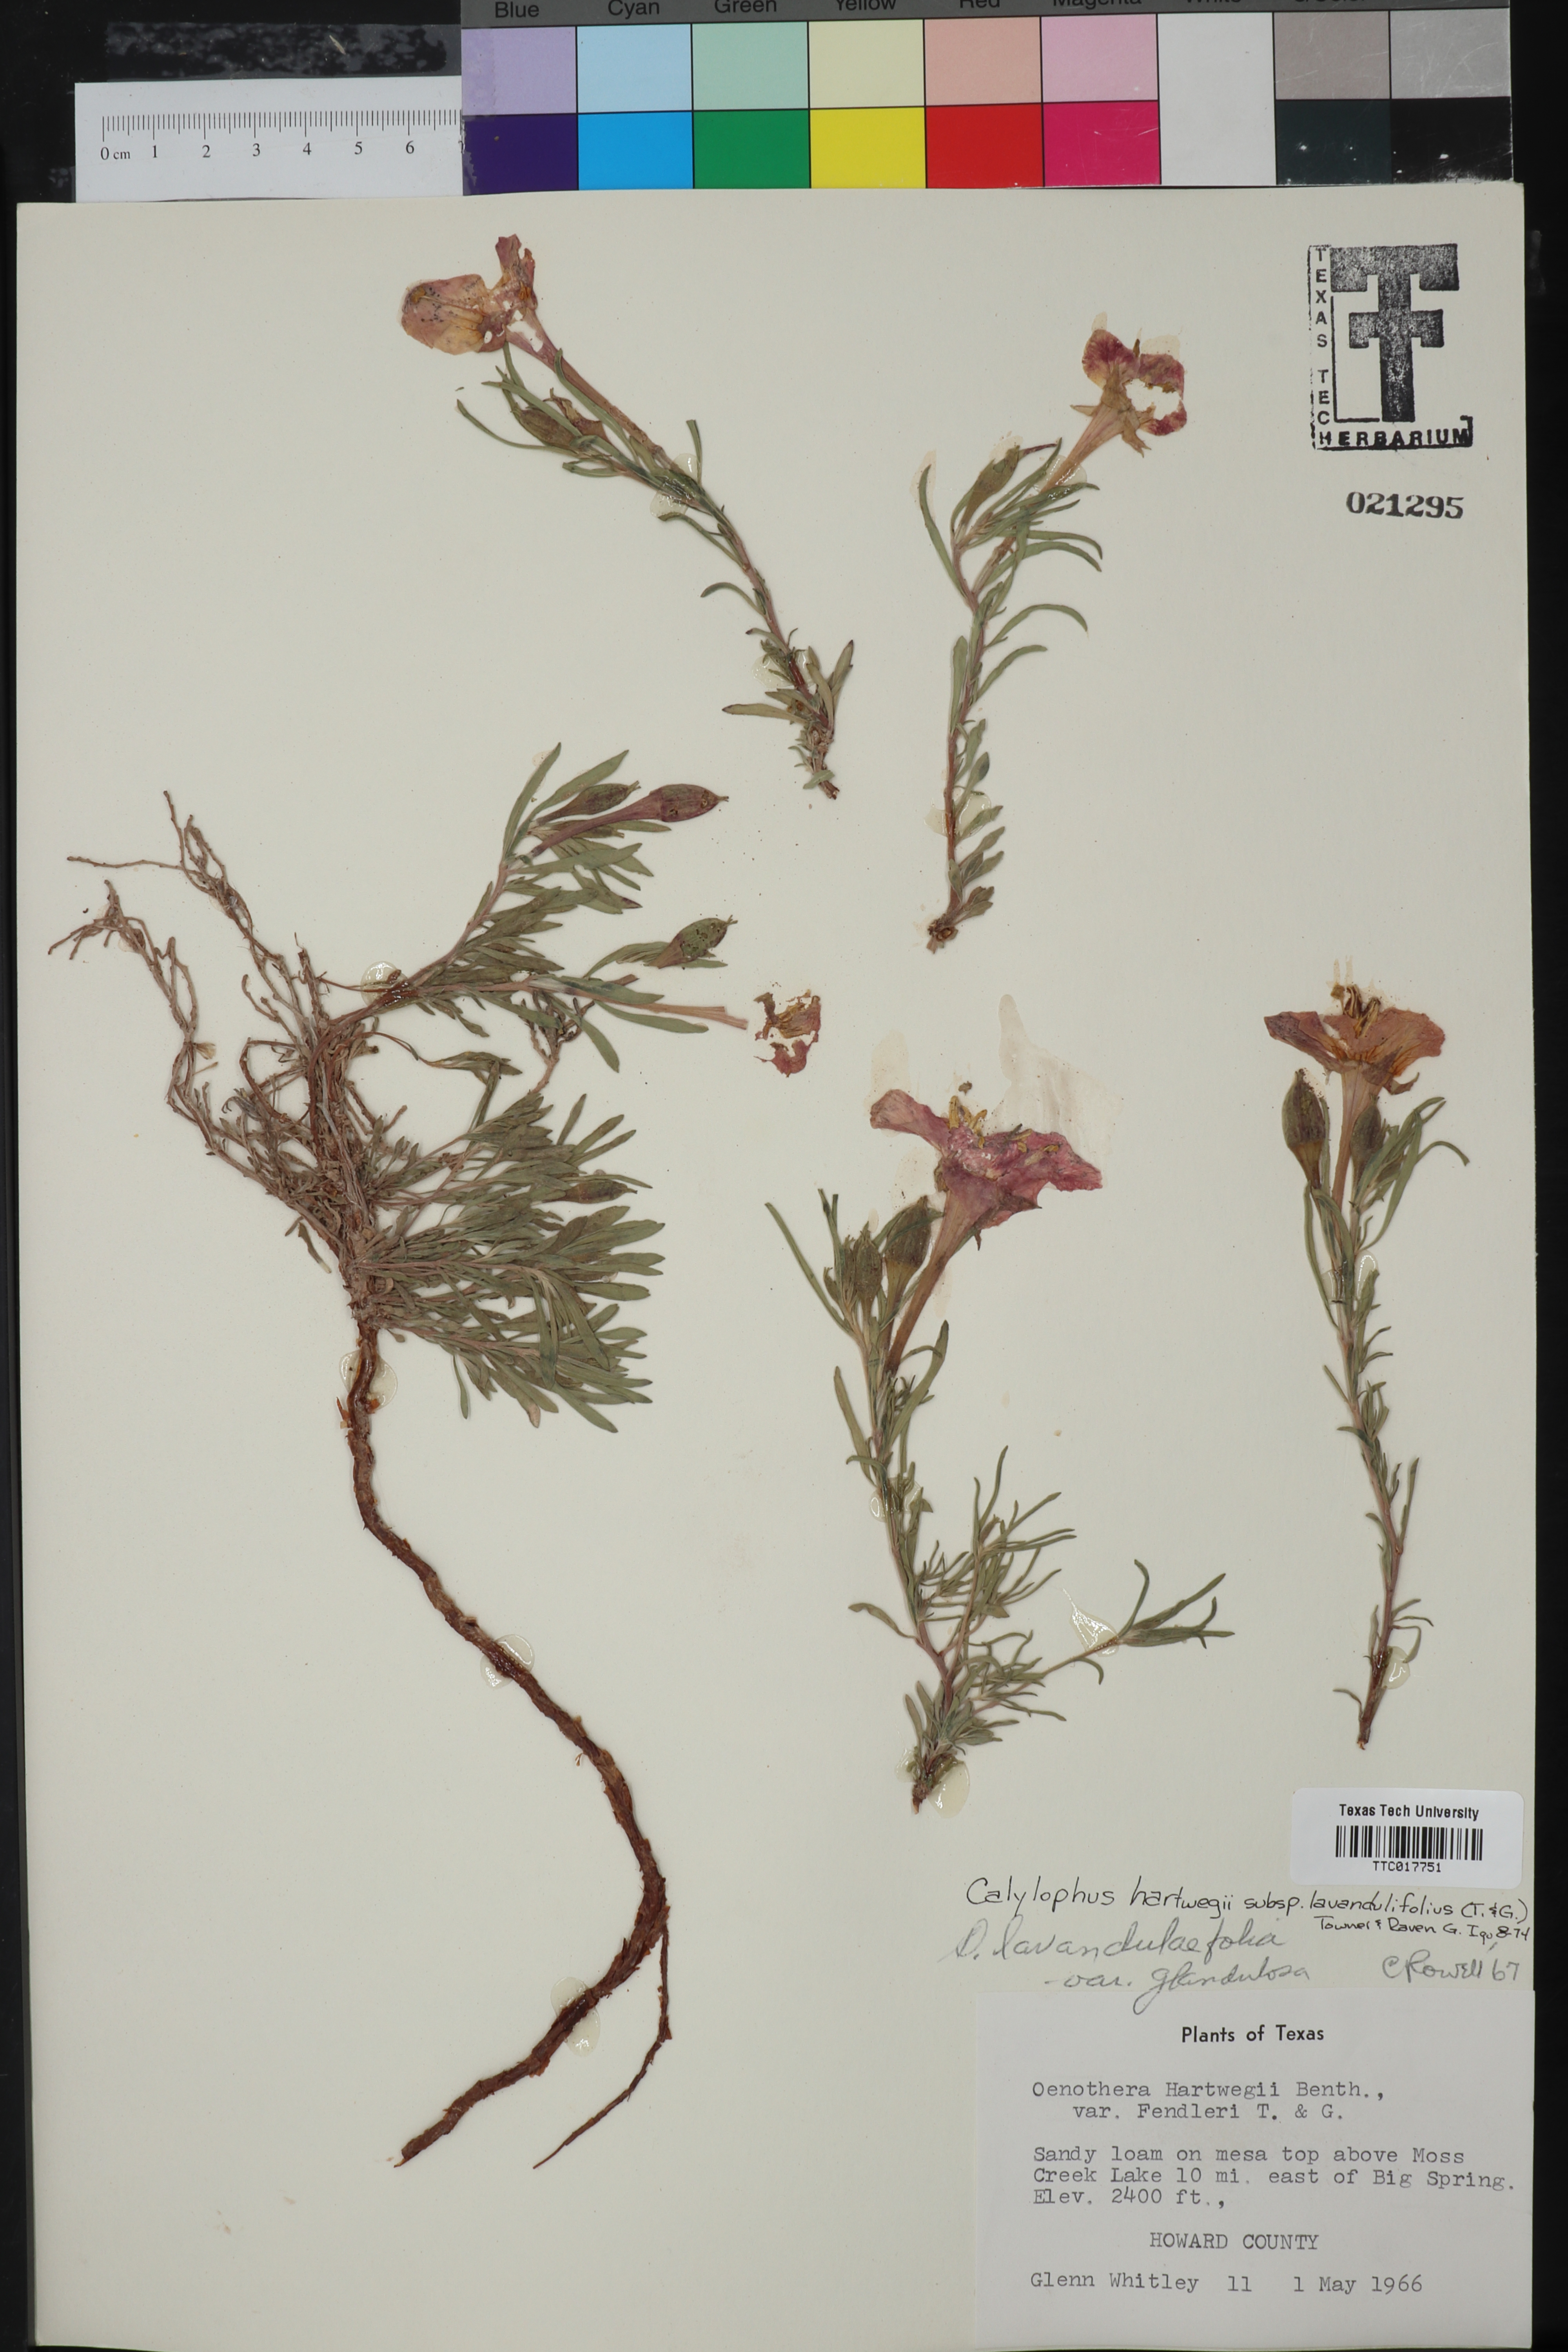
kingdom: Plantae
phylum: Tracheophyta
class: Magnoliopsida
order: Myrtales
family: Onagraceae
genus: Oenothera
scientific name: Oenothera hartwegii
